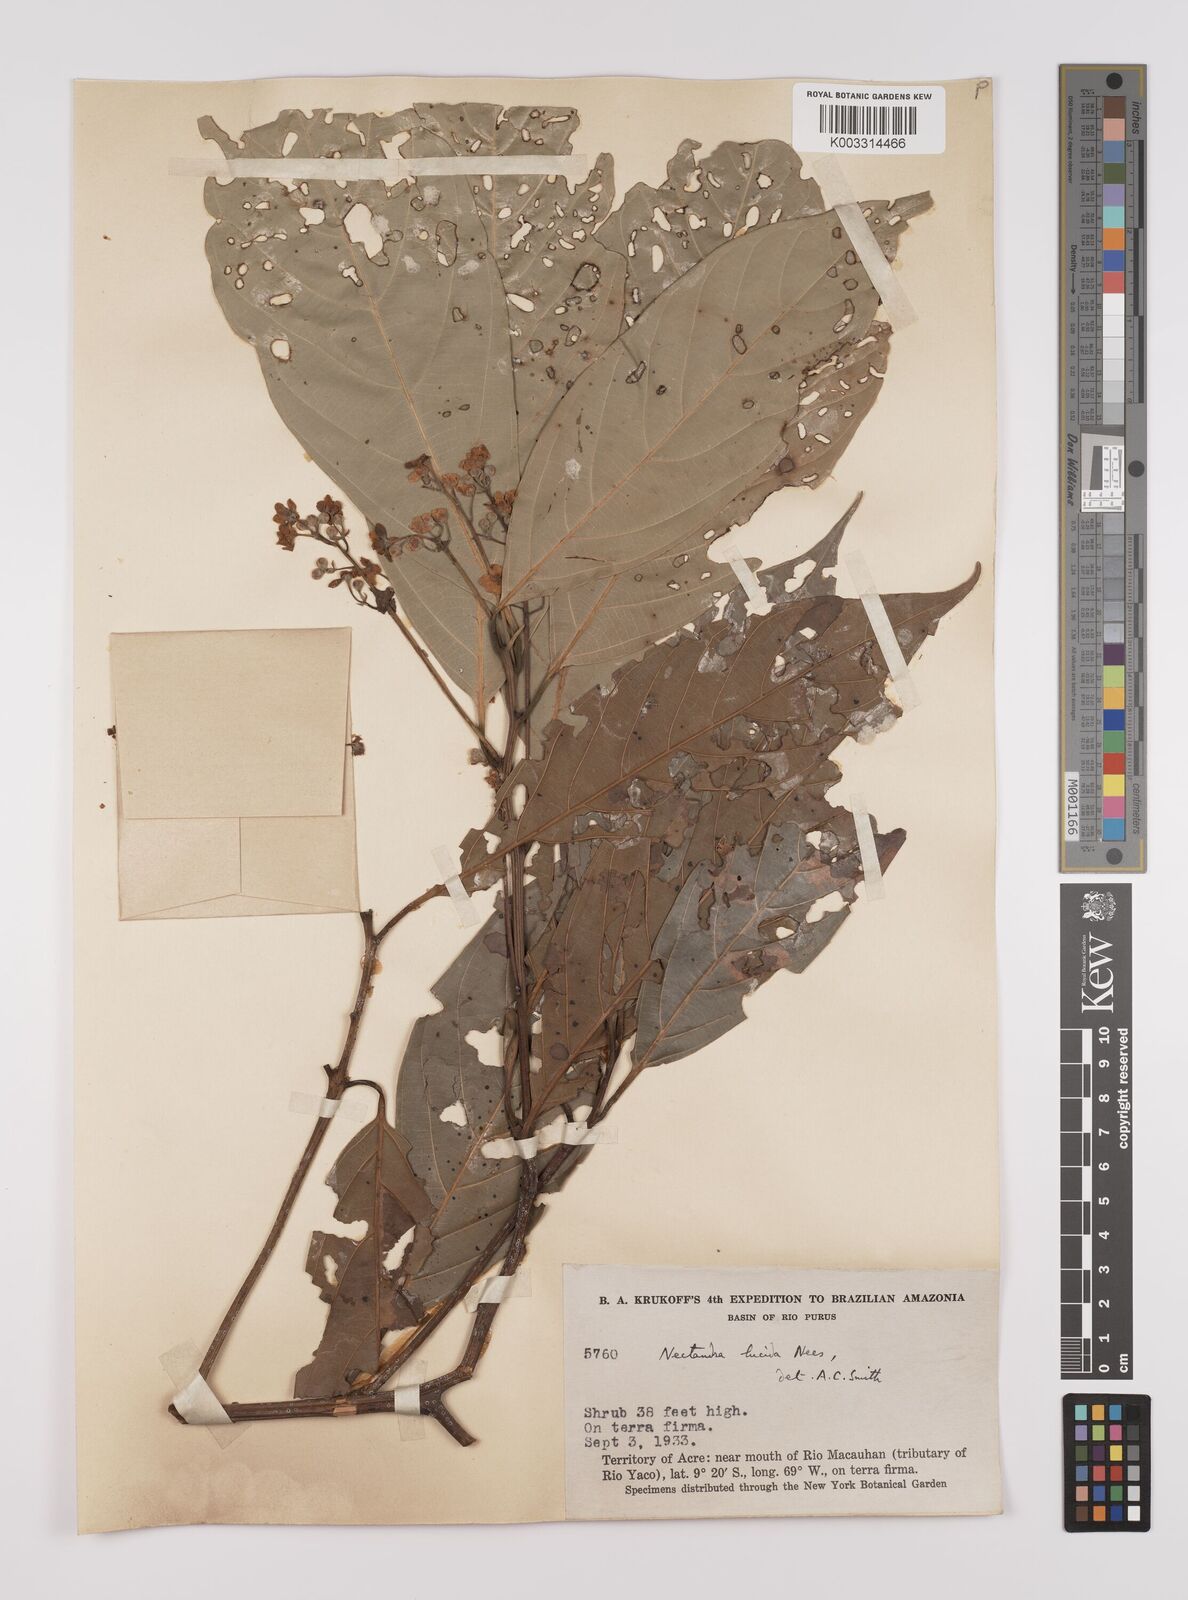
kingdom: Plantae
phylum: Tracheophyta
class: Magnoliopsida
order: Laurales
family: Lauraceae
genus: Endlicheria
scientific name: Endlicheria paniculata
